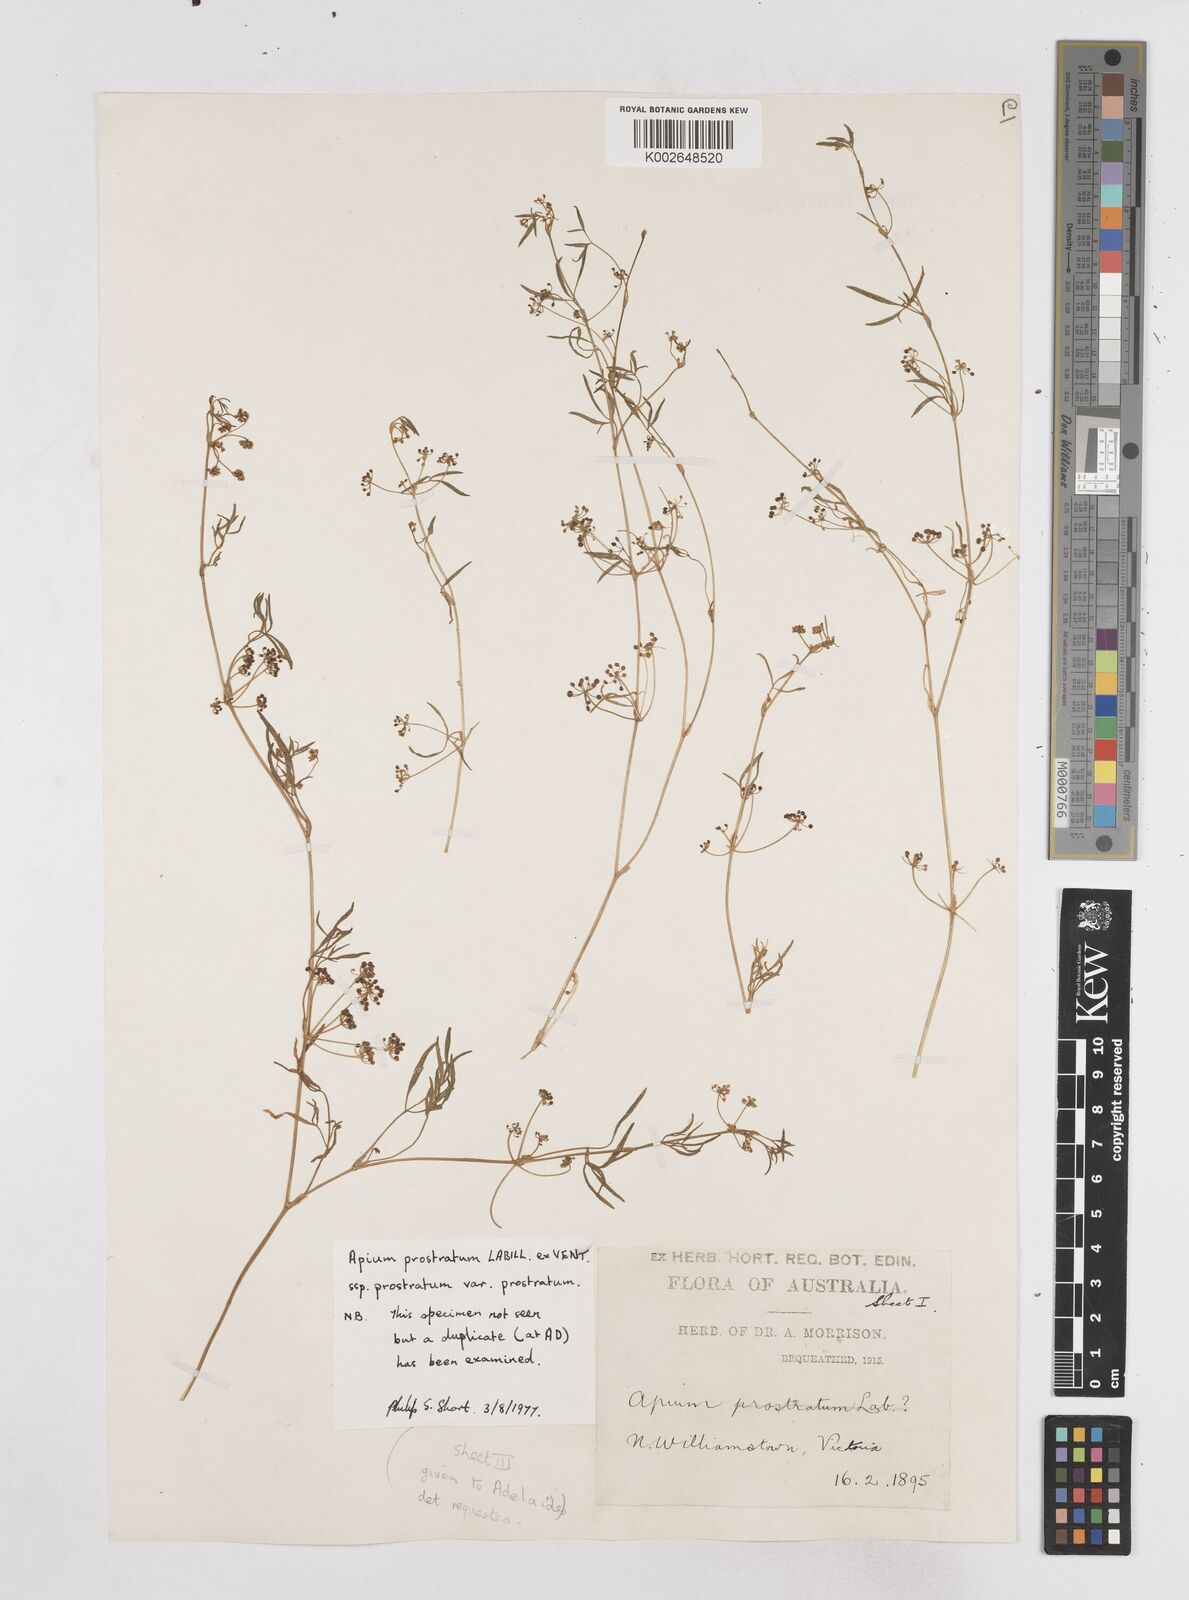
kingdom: Plantae
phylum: Tracheophyta
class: Magnoliopsida
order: Apiales
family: Apiaceae
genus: Apium
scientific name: Apium prostratum
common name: Prostrate marshwort
